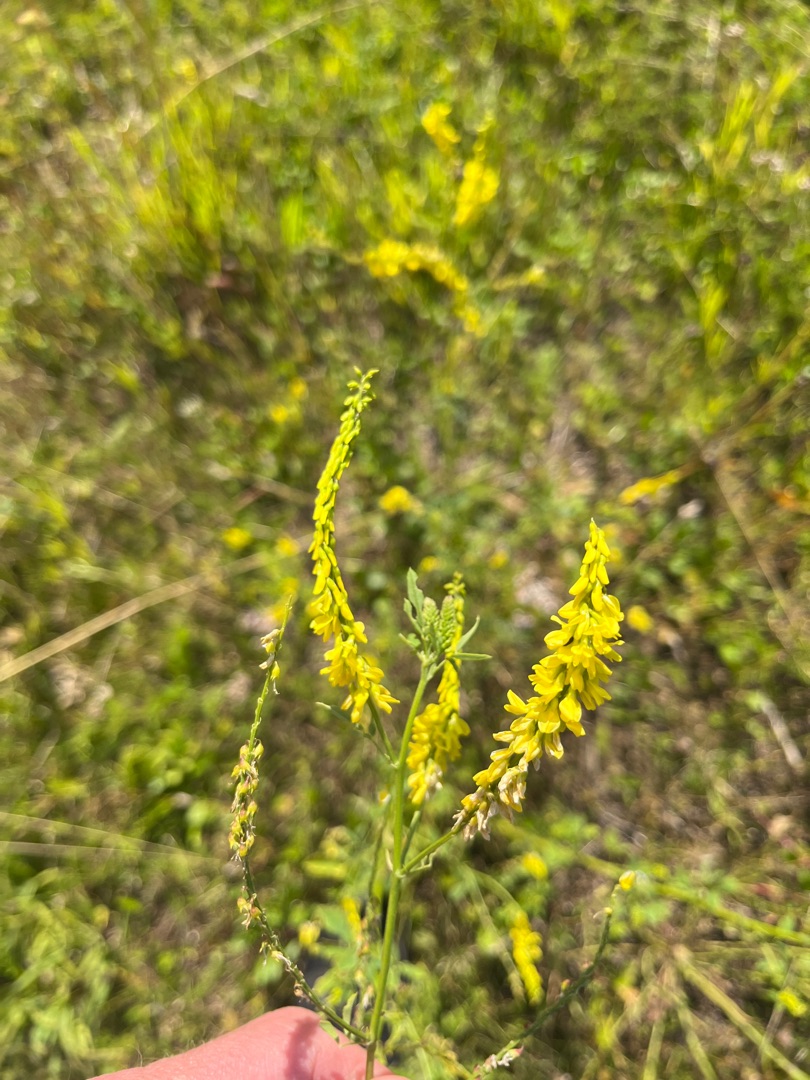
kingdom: Plantae
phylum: Tracheophyta
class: Magnoliopsida
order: Fabales
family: Fabaceae
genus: Melilotus
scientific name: Melilotus officinalis
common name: Mark-stenkløver
